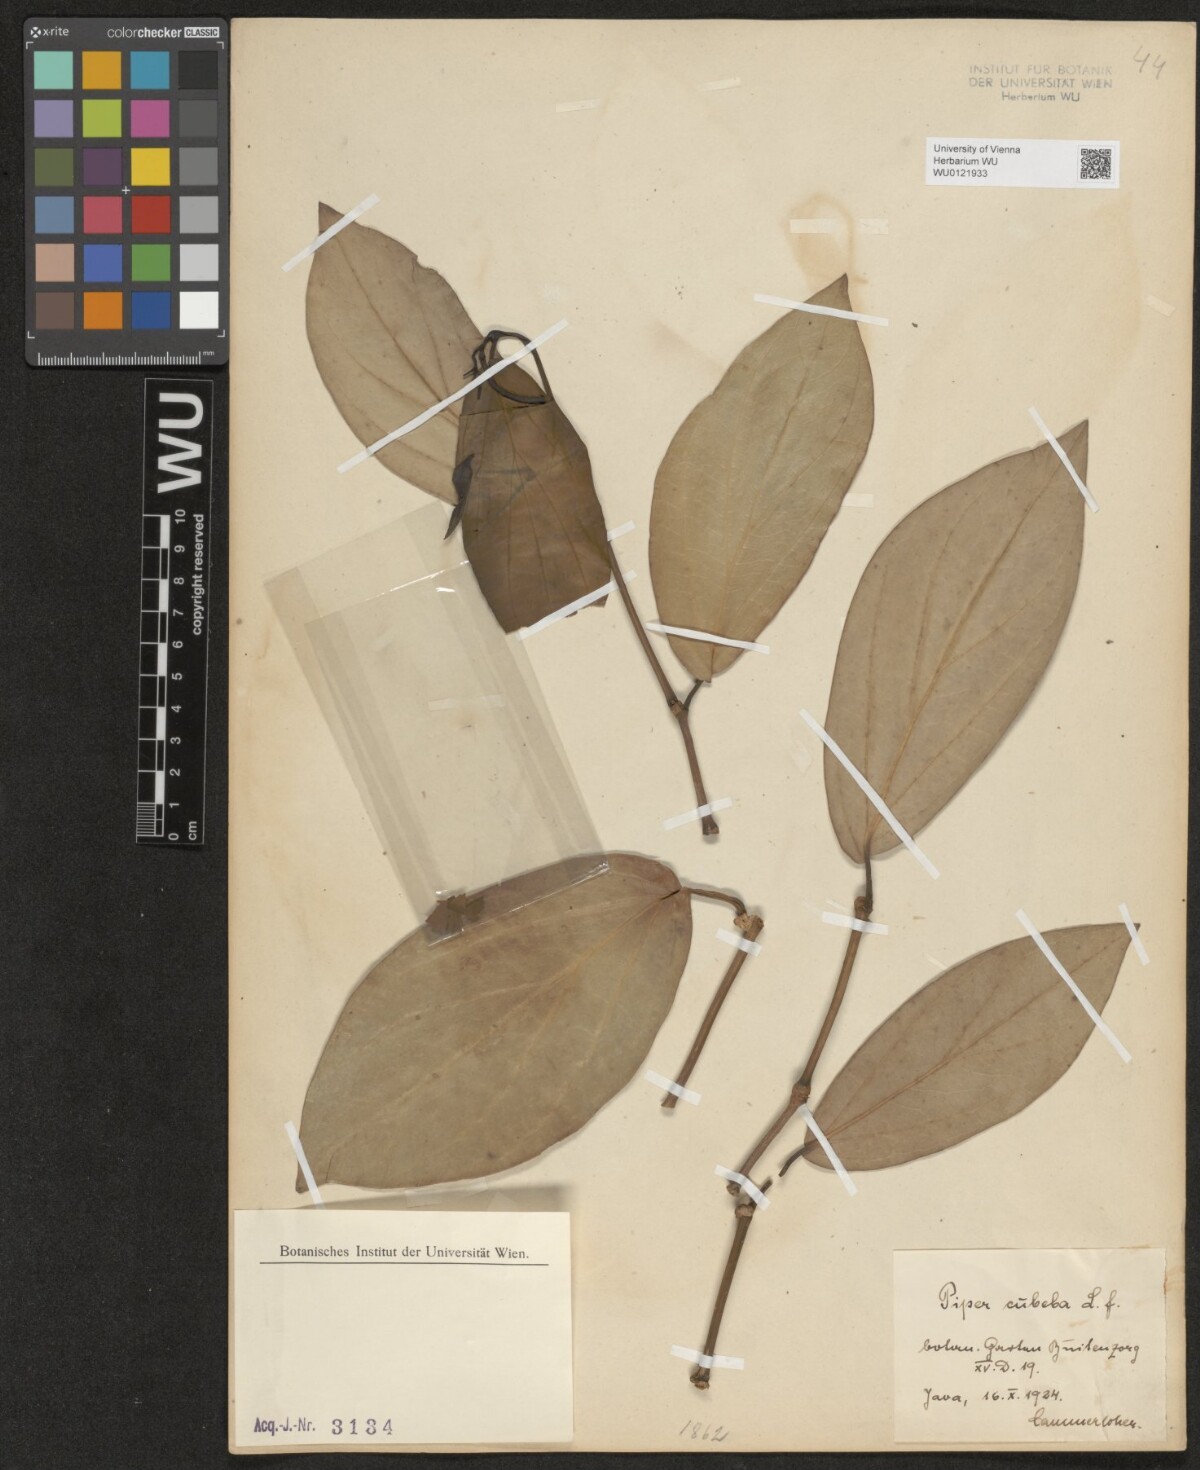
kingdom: Plantae
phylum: Tracheophyta
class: Magnoliopsida
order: Piperales
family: Piperaceae
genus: Piper
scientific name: Piper cubeba
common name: Cubeb
